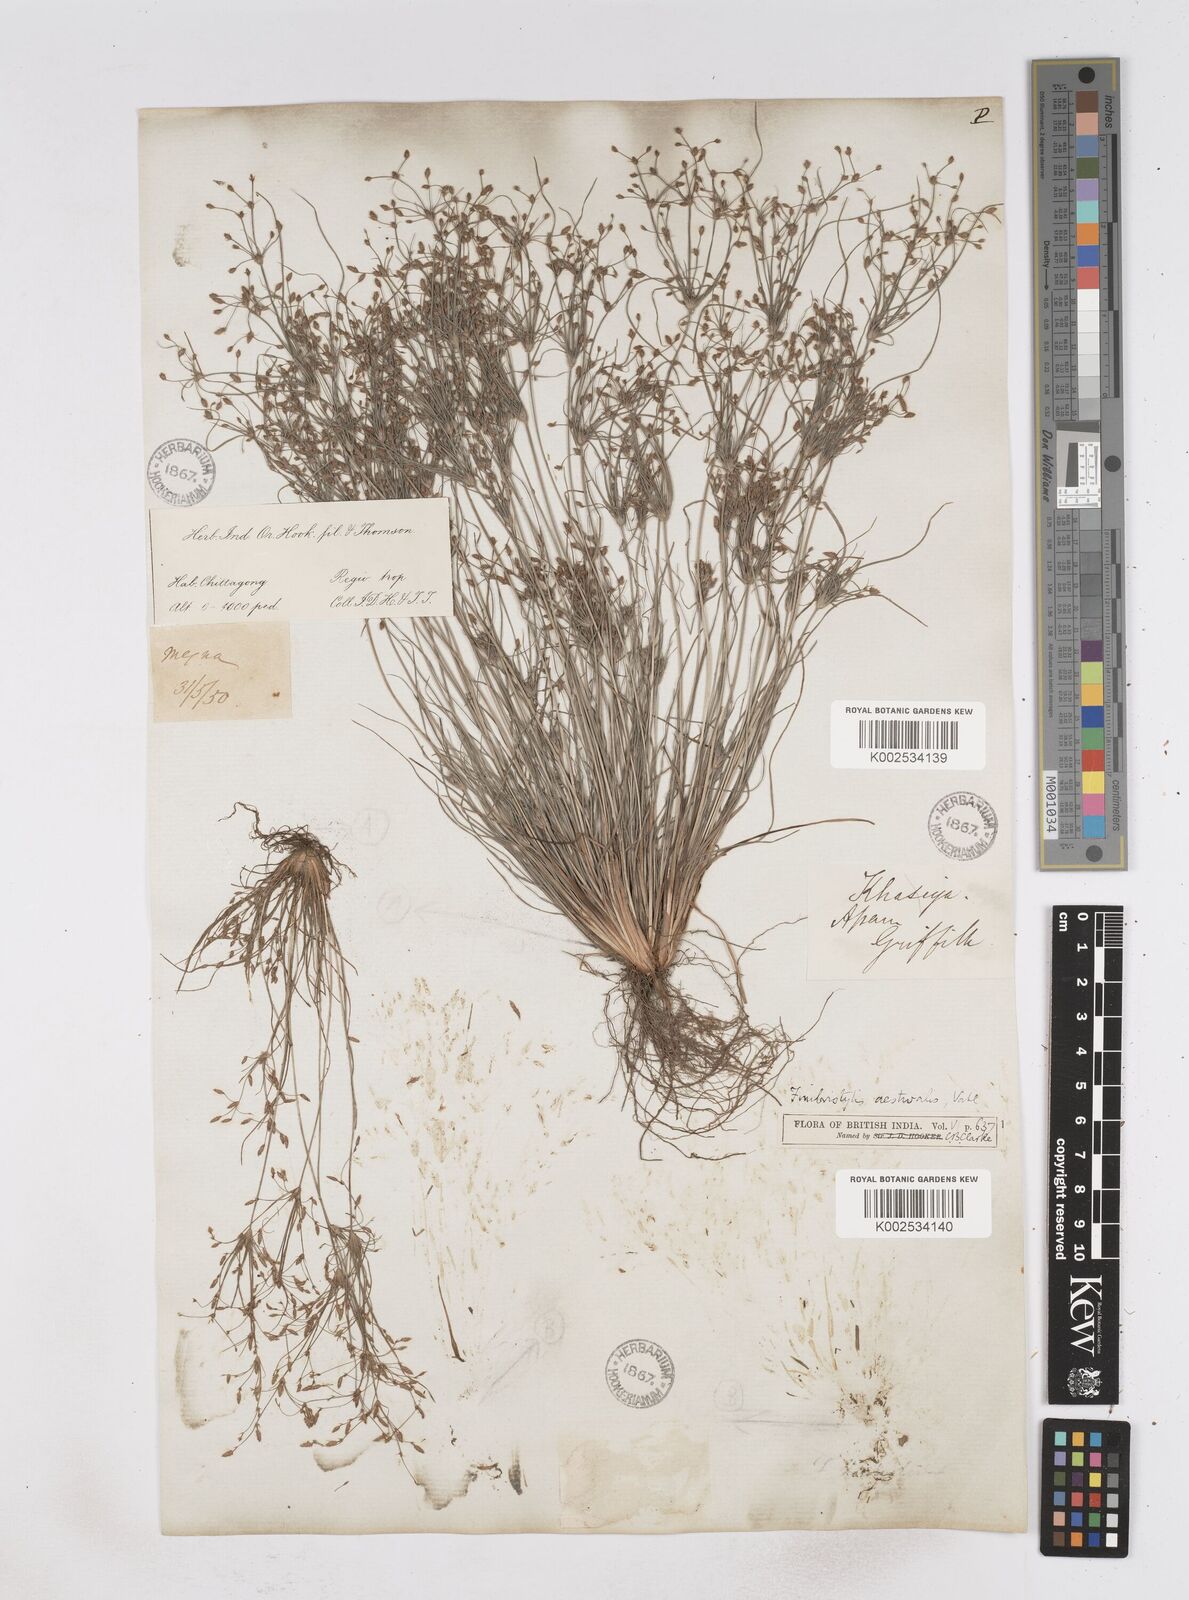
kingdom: Plantae
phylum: Tracheophyta
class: Liliopsida
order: Poales
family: Cyperaceae
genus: Fimbristylis
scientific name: Fimbristylis aestivalis
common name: Summer fimbry
